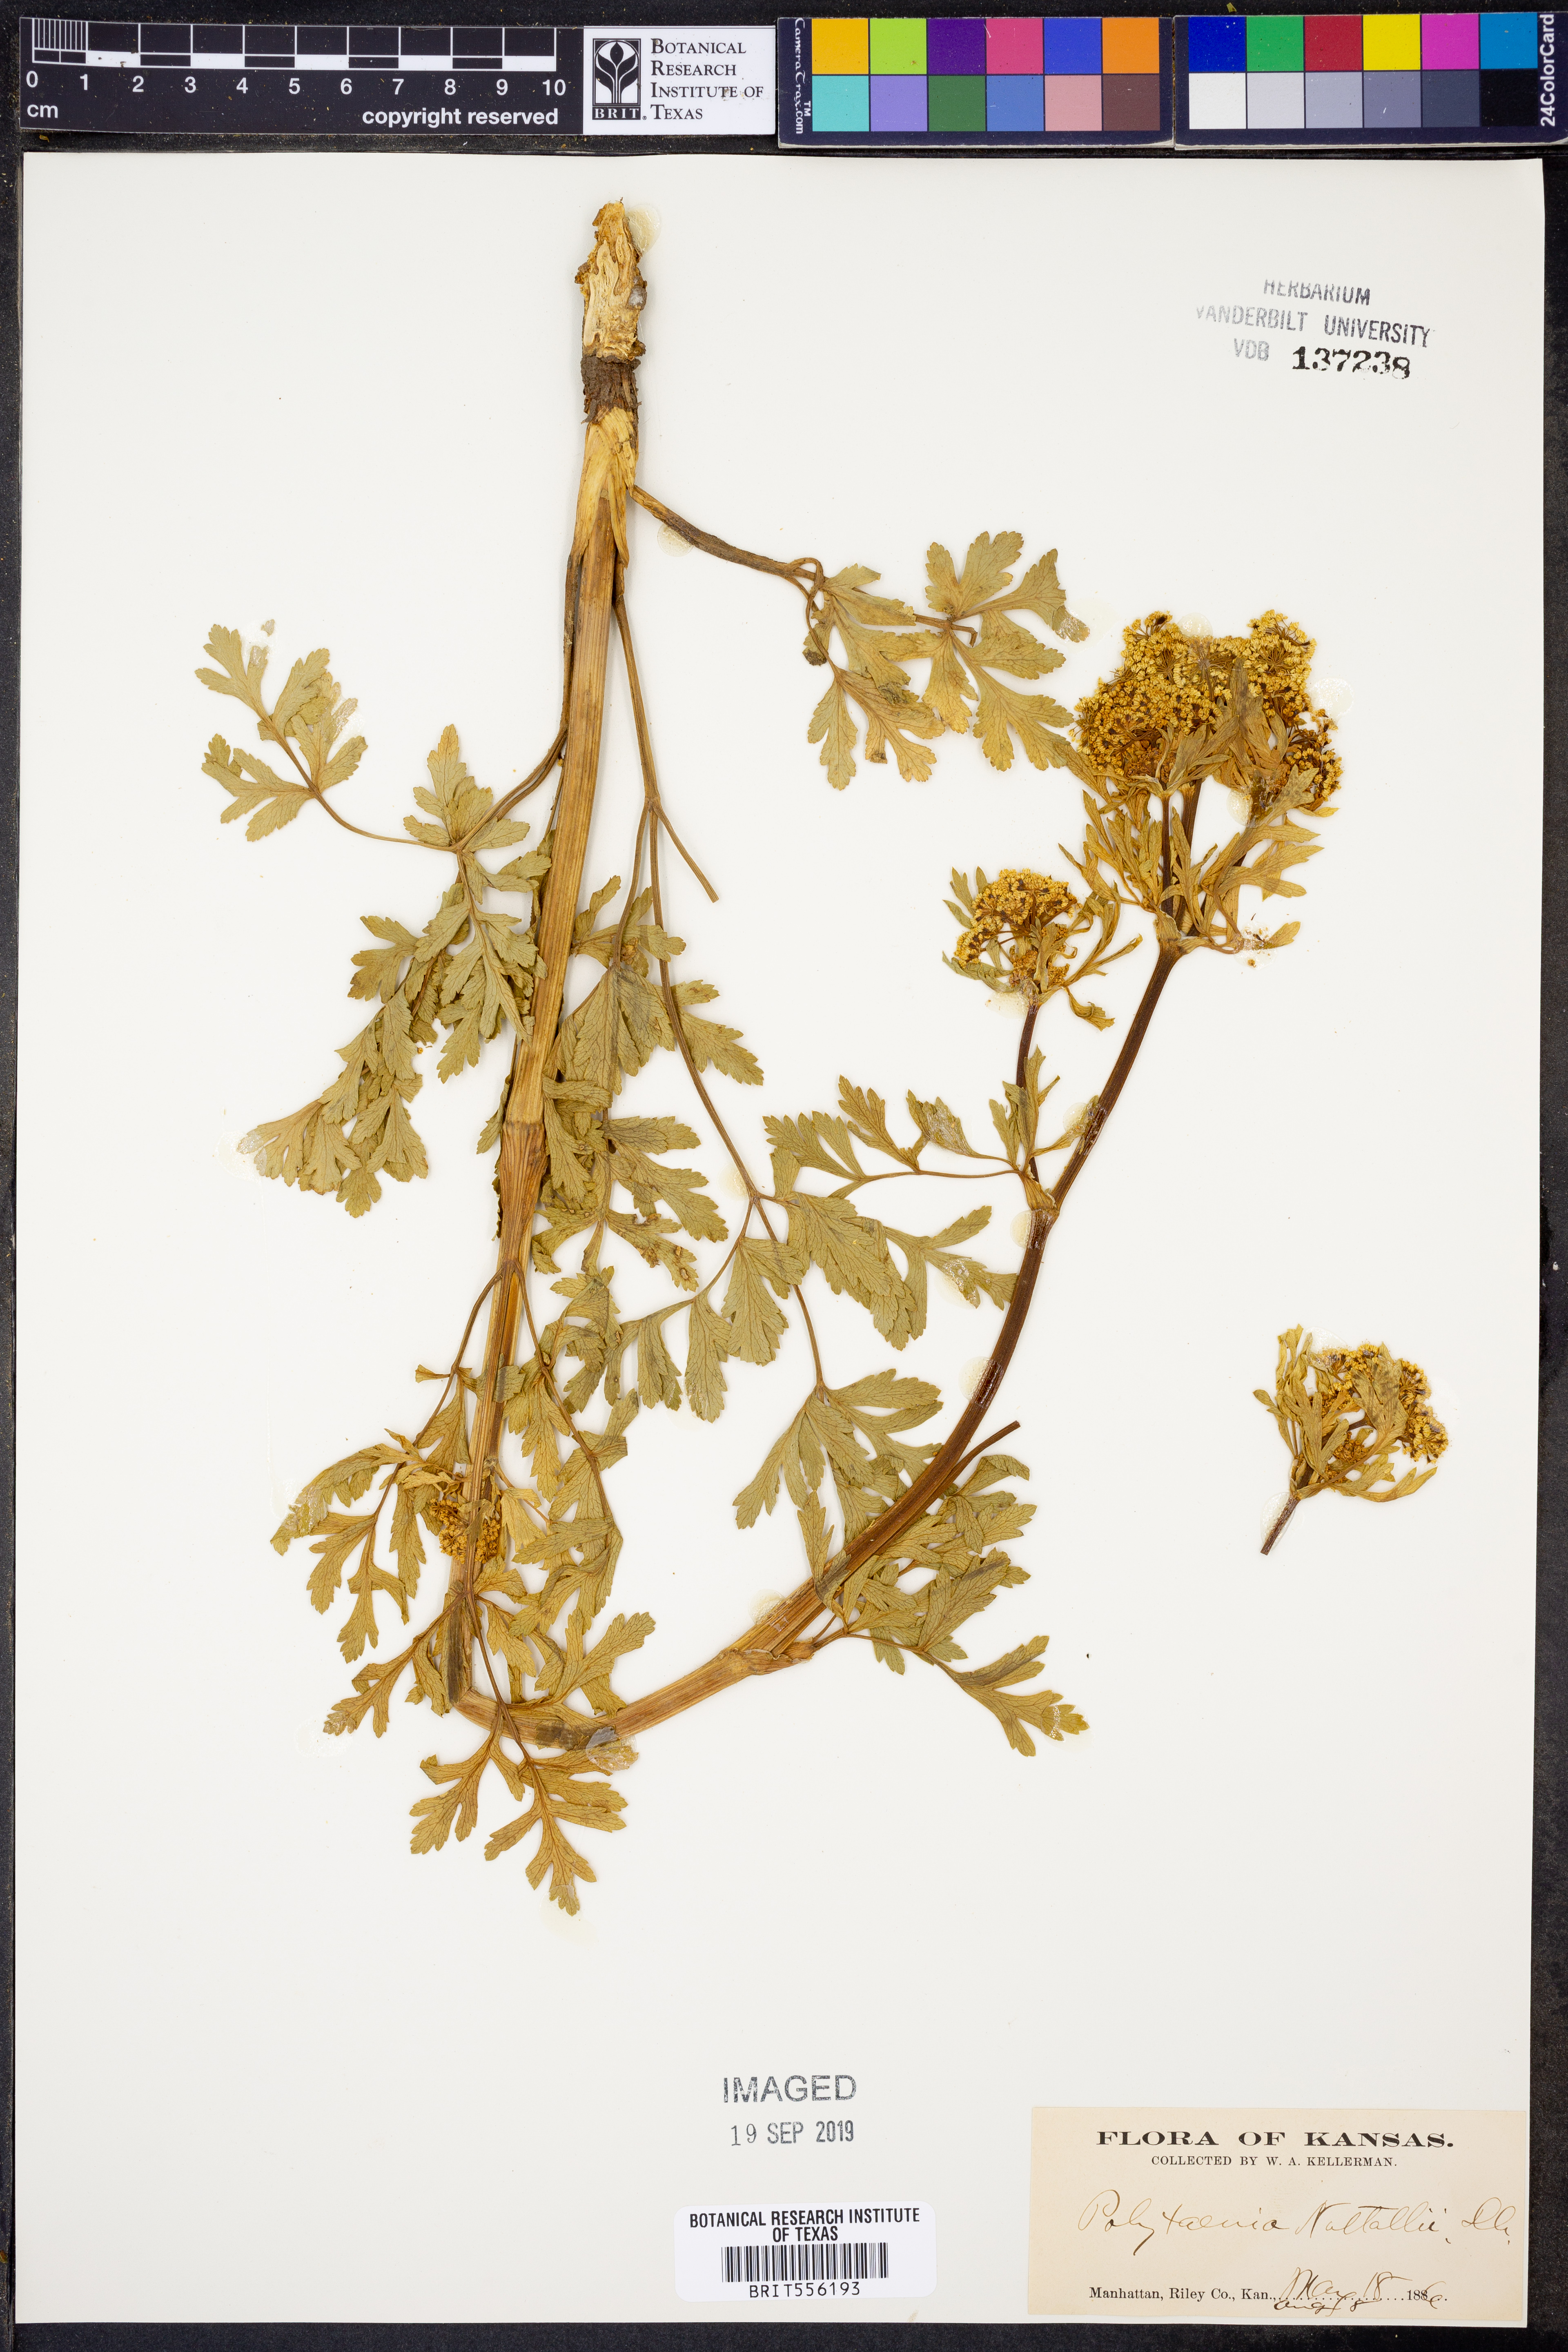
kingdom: Plantae
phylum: Tracheophyta
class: Magnoliopsida
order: Apiales
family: Apiaceae
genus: Polytaenia
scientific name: Polytaenia nuttallii
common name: Prairie-parsley
